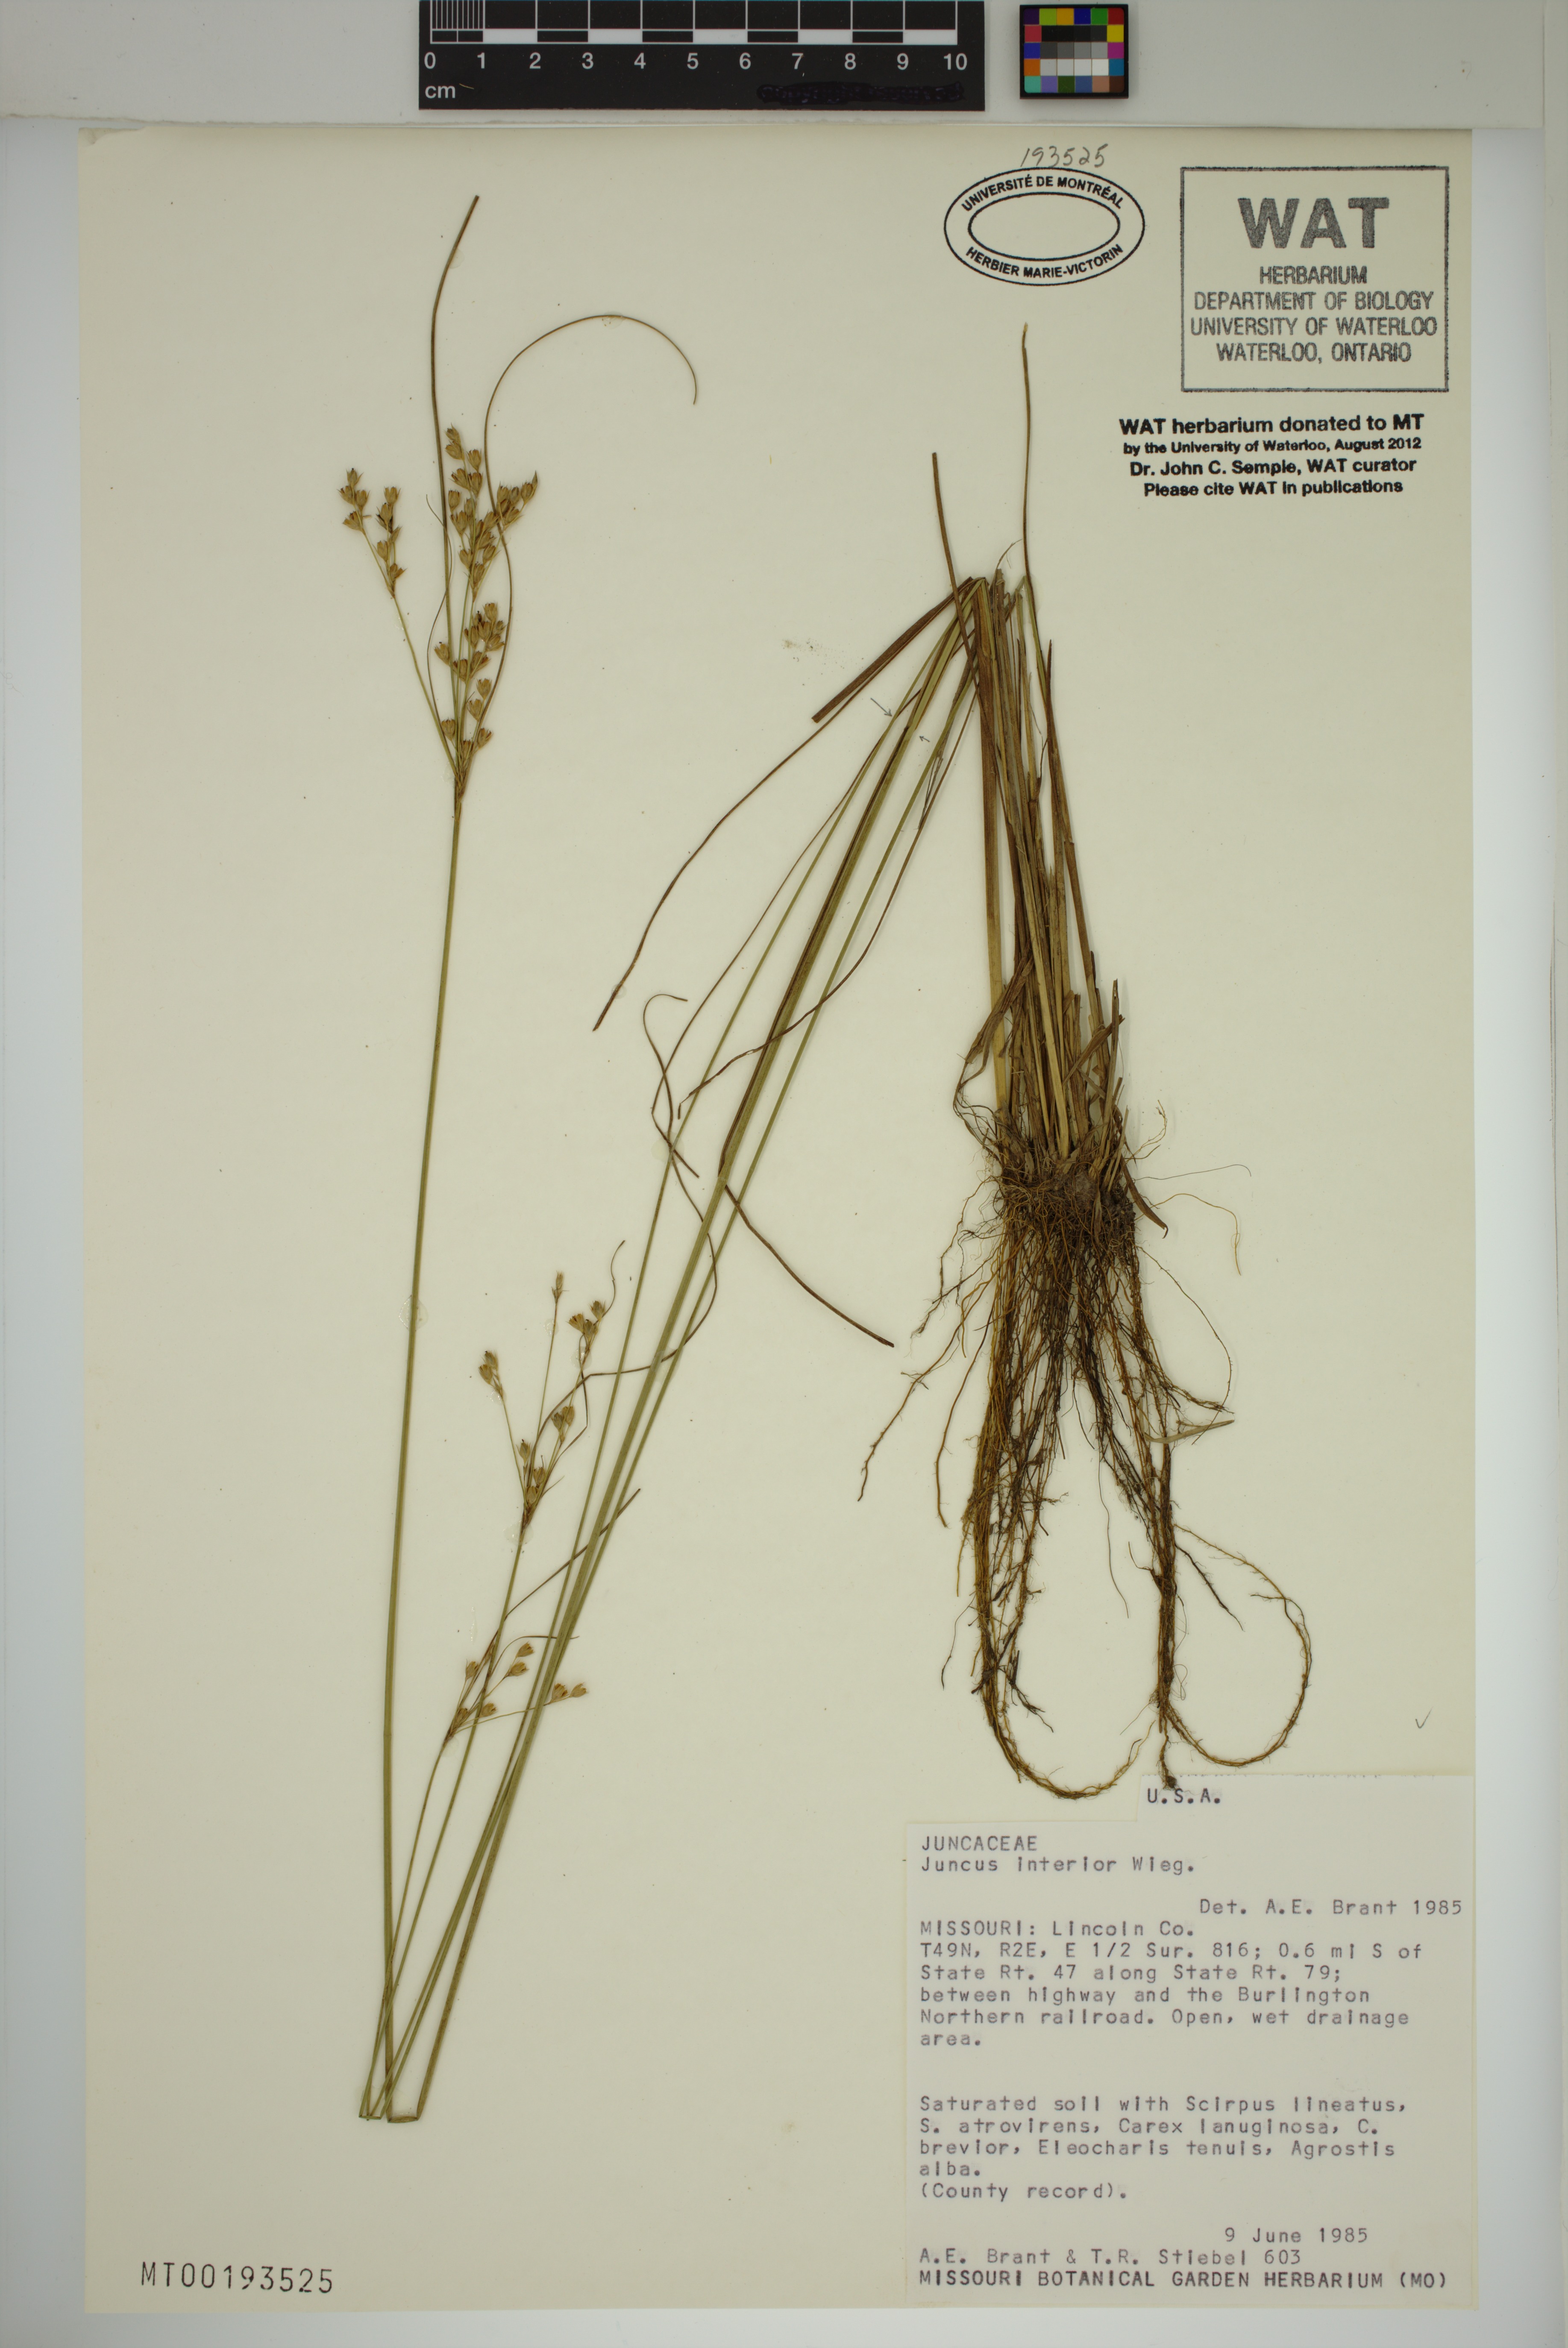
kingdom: Plantae
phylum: Tracheophyta
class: Liliopsida
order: Poales
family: Juncaceae
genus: Juncus
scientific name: Juncus interior
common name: Interior rush
